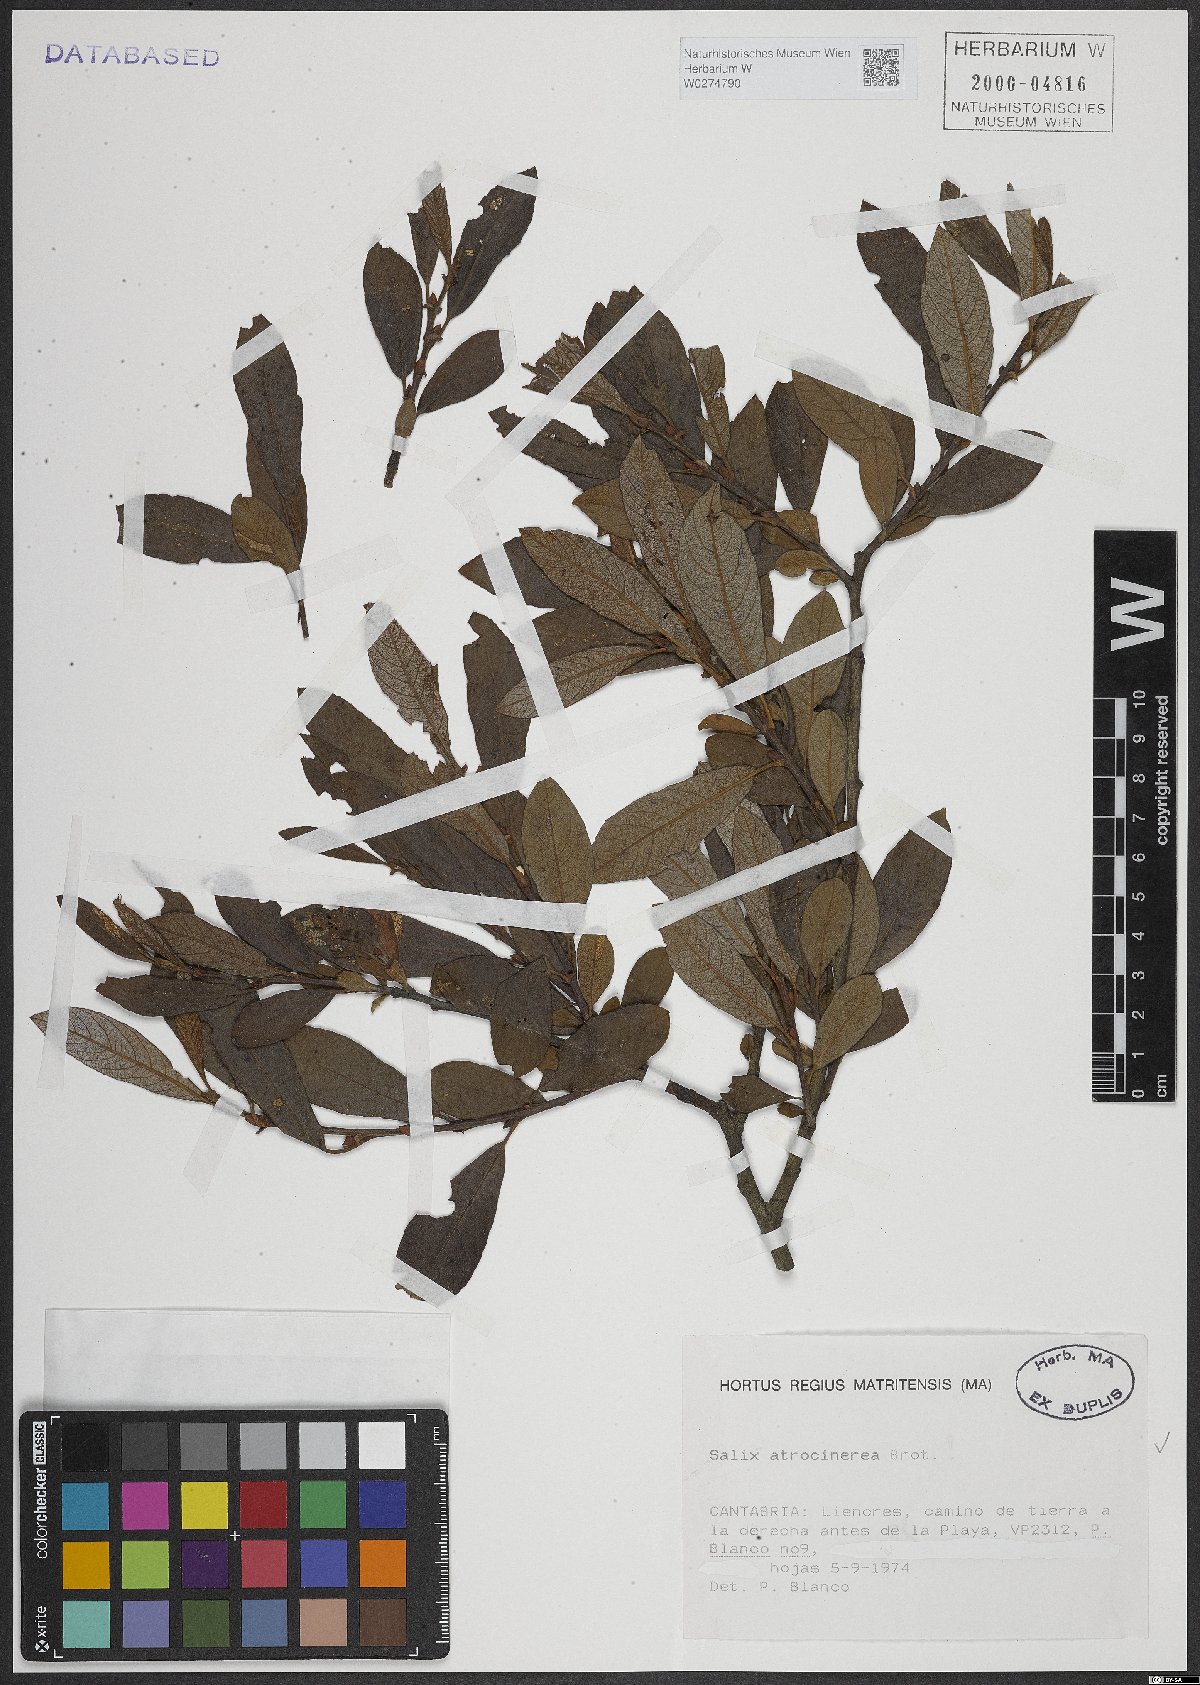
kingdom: Plantae
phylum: Tracheophyta
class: Magnoliopsida
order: Malpighiales
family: Salicaceae
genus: Salix
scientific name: Salix atrocinerea
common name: Rusty willow
